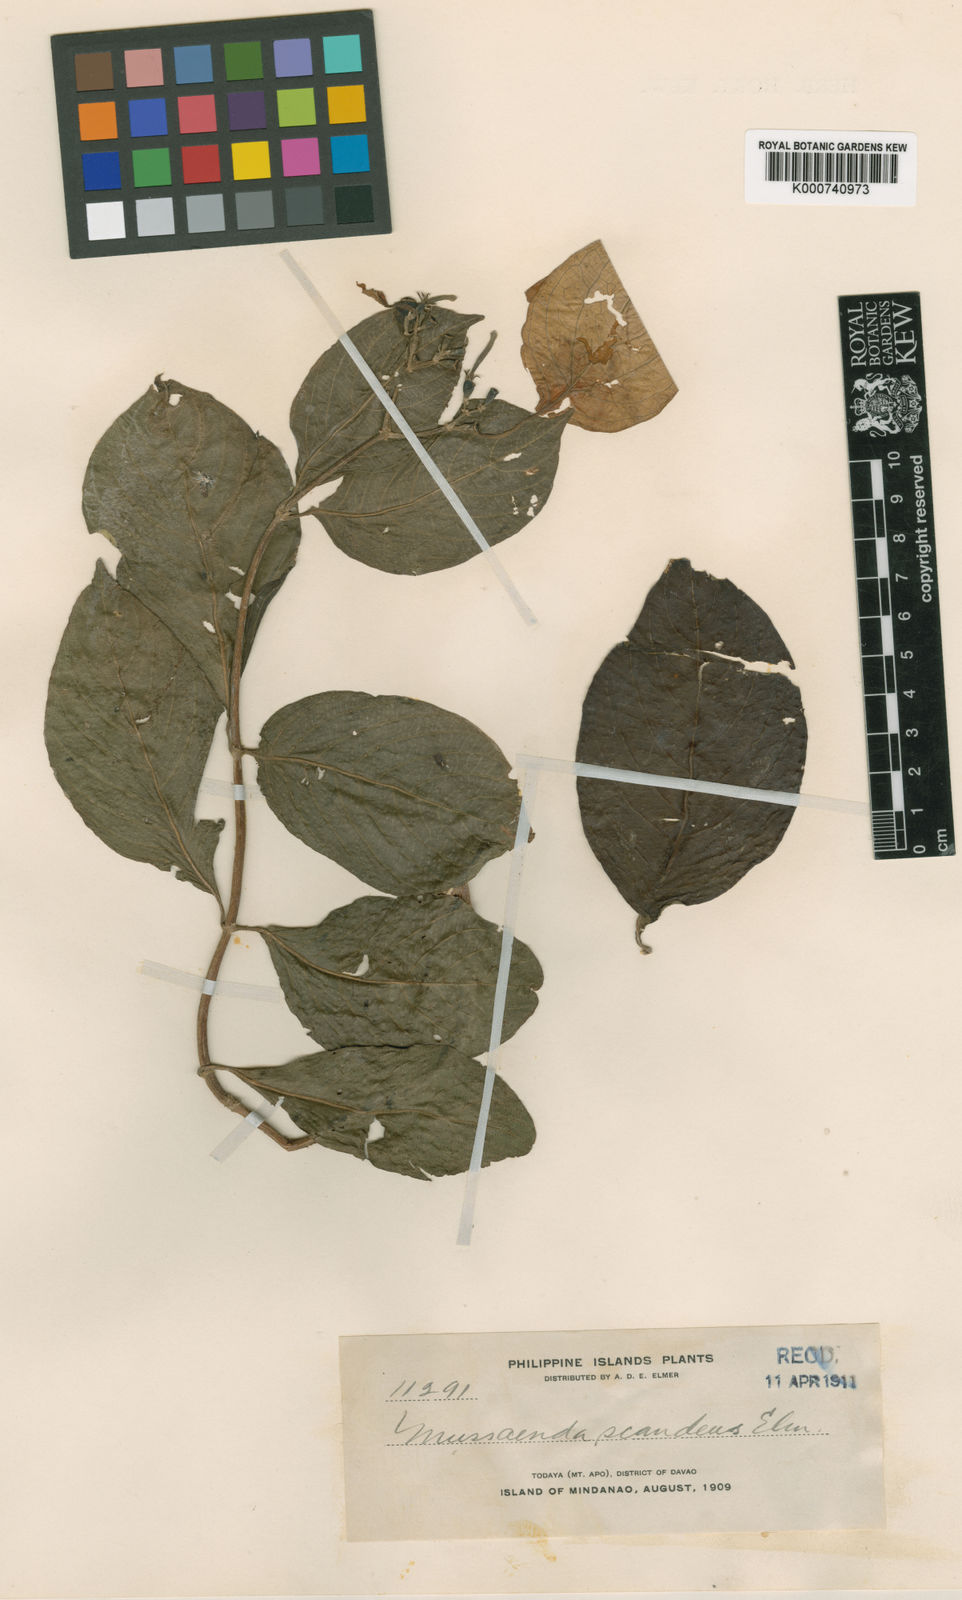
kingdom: Plantae
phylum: Tracheophyta
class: Magnoliopsida
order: Gentianales
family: Rubiaceae
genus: Mussaenda
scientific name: Mussaenda scandens
